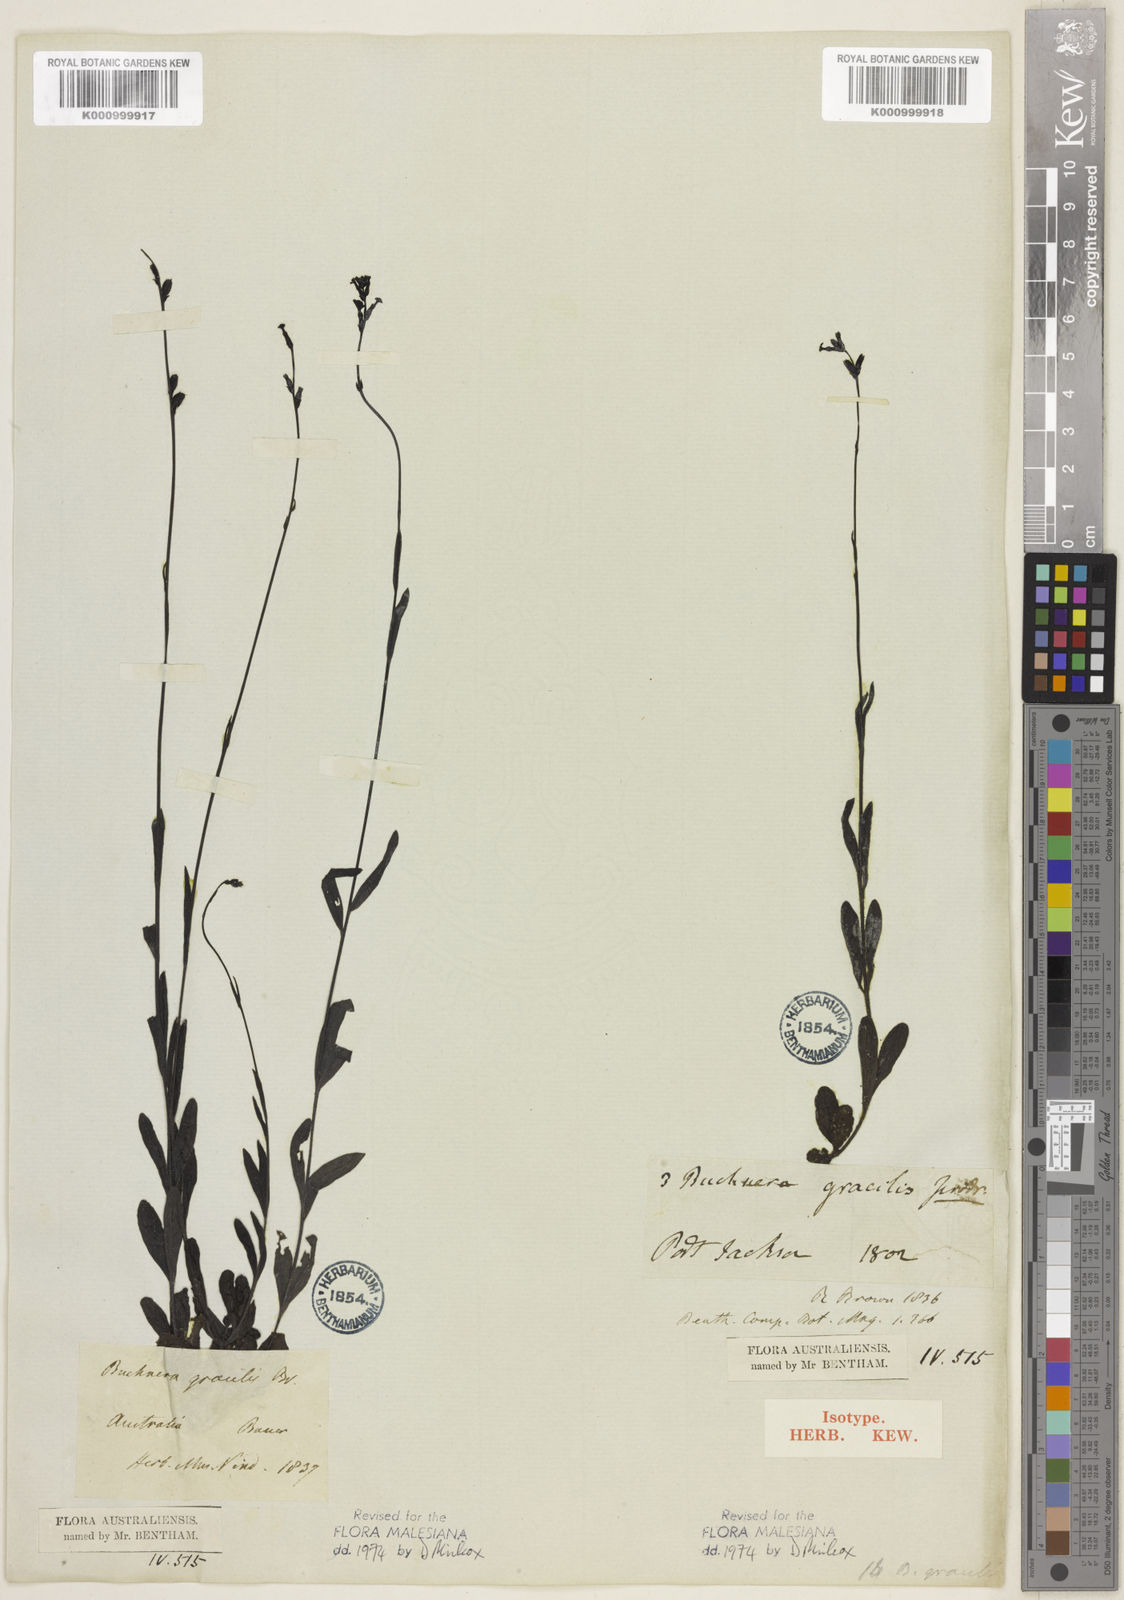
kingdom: Plantae
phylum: Tracheophyta
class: Magnoliopsida
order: Lamiales
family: Orobanchaceae
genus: Buchnera
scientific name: Buchnera gracilis
